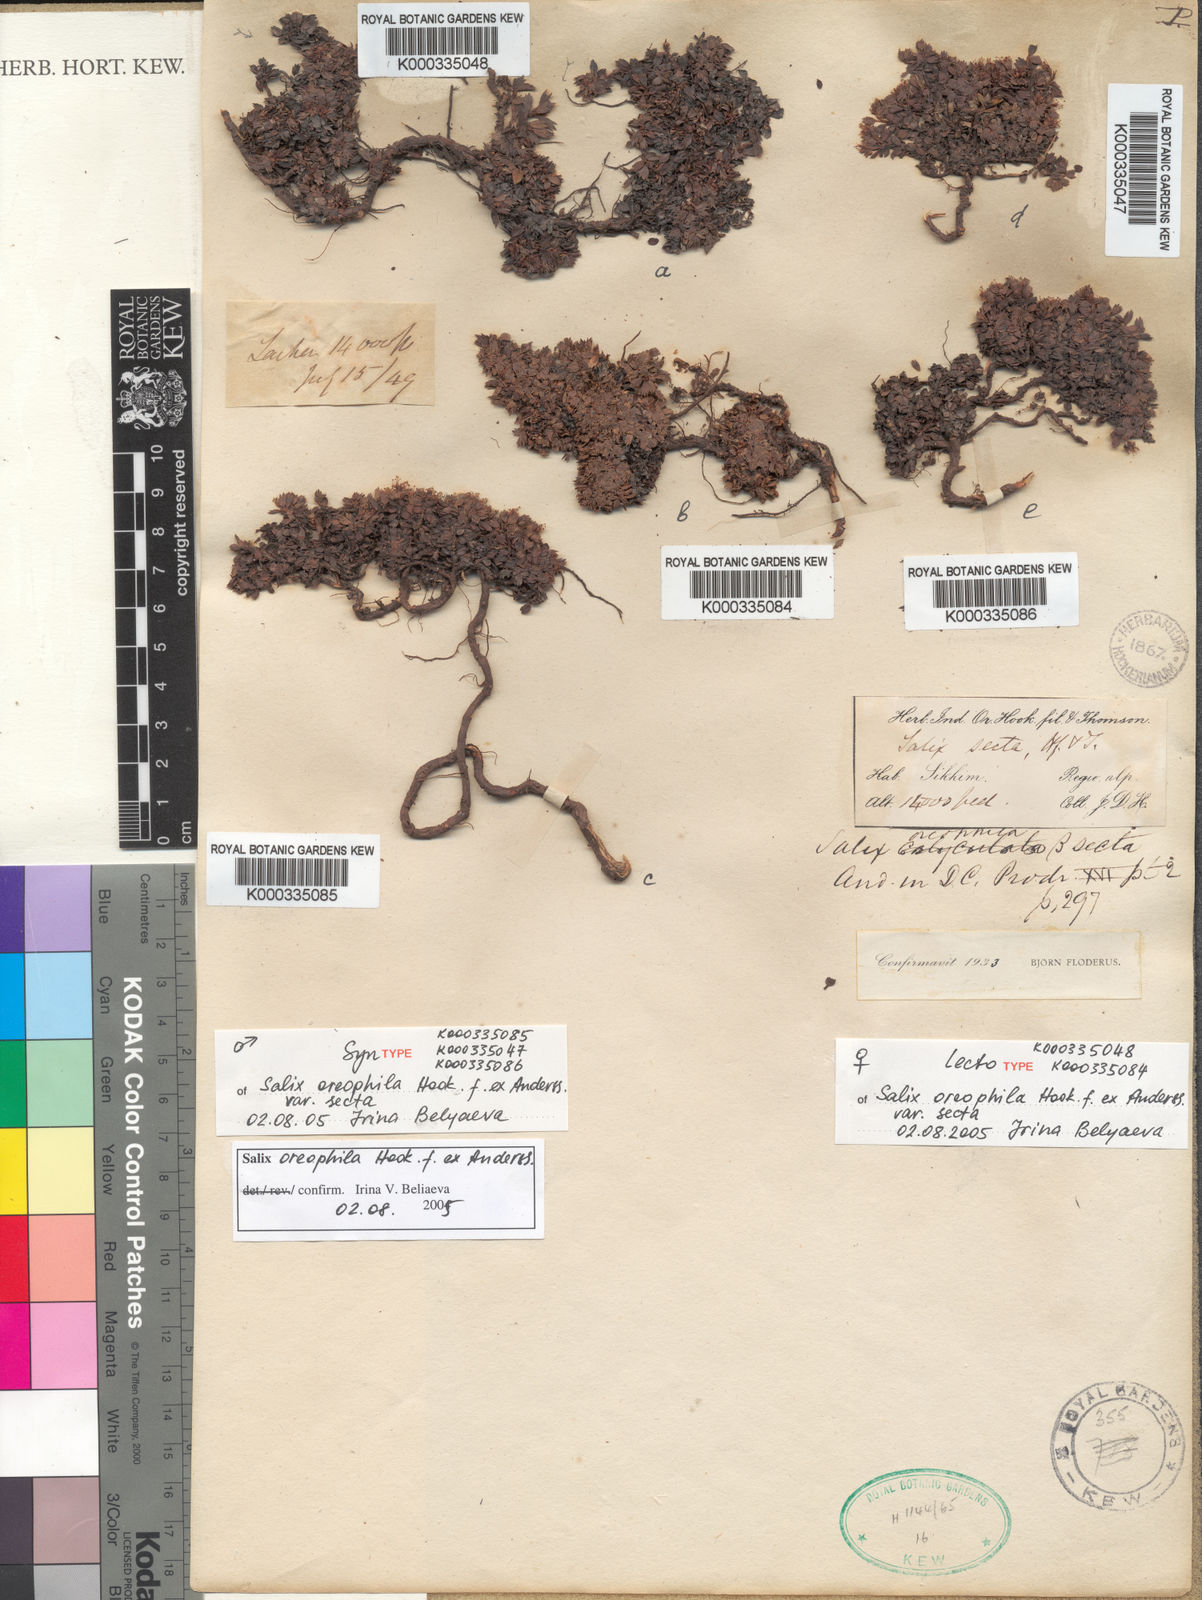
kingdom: Plantae
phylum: Tracheophyta
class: Magnoliopsida
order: Malpighiales
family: Salicaceae
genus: Salix
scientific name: Salix oreophila
